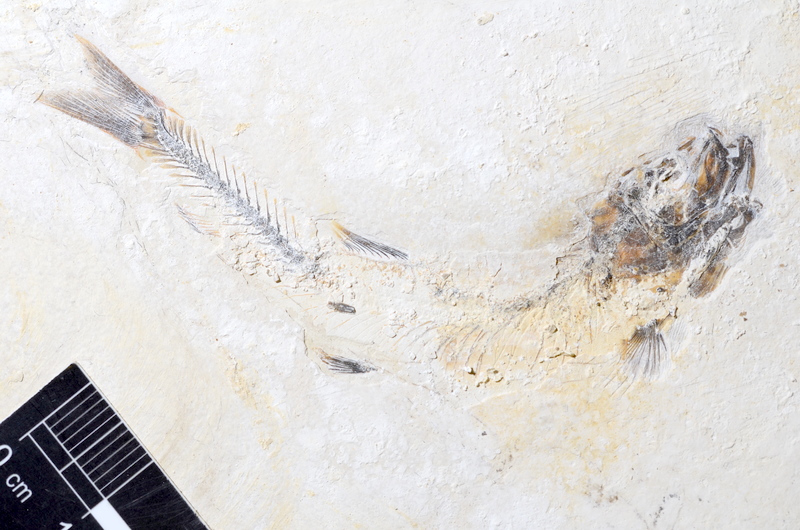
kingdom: Animalia
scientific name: Animalia
